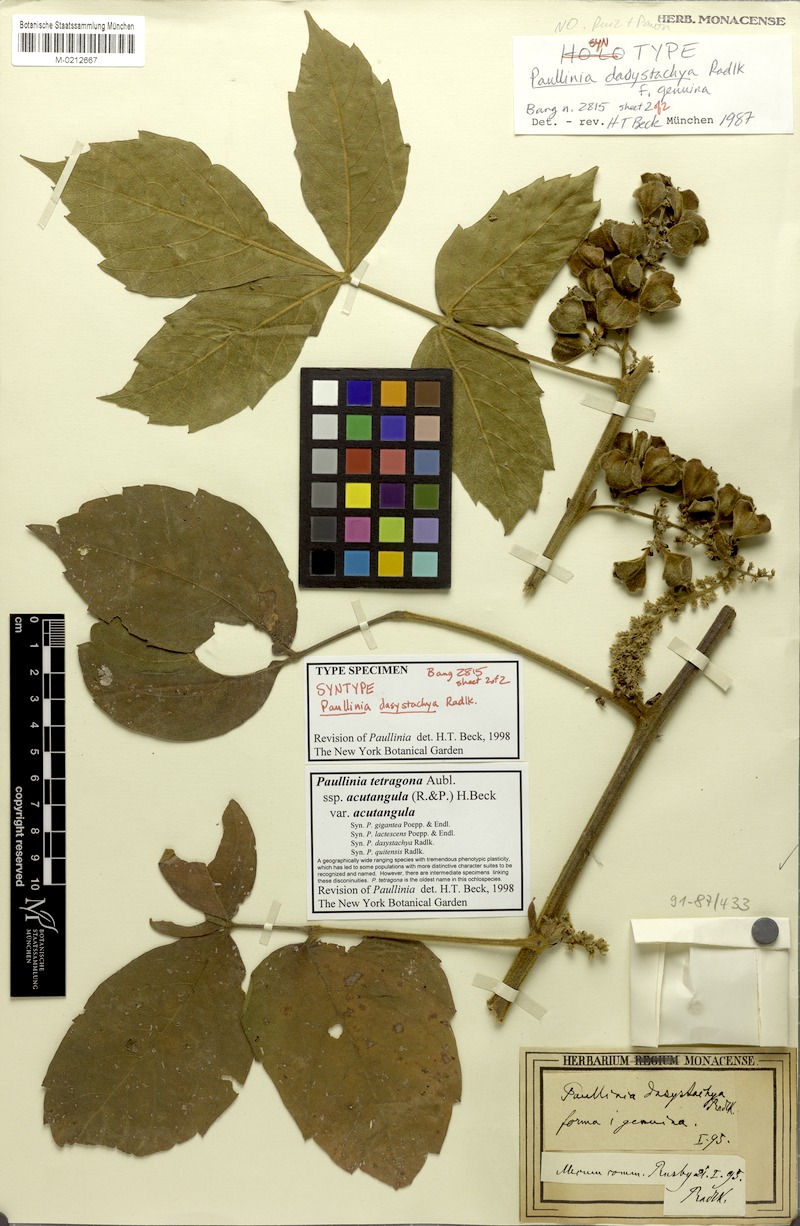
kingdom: Plantae
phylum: Tracheophyta
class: Magnoliopsida
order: Sapindales
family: Sapindaceae
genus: Paullinia
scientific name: Paullinia tetragona
